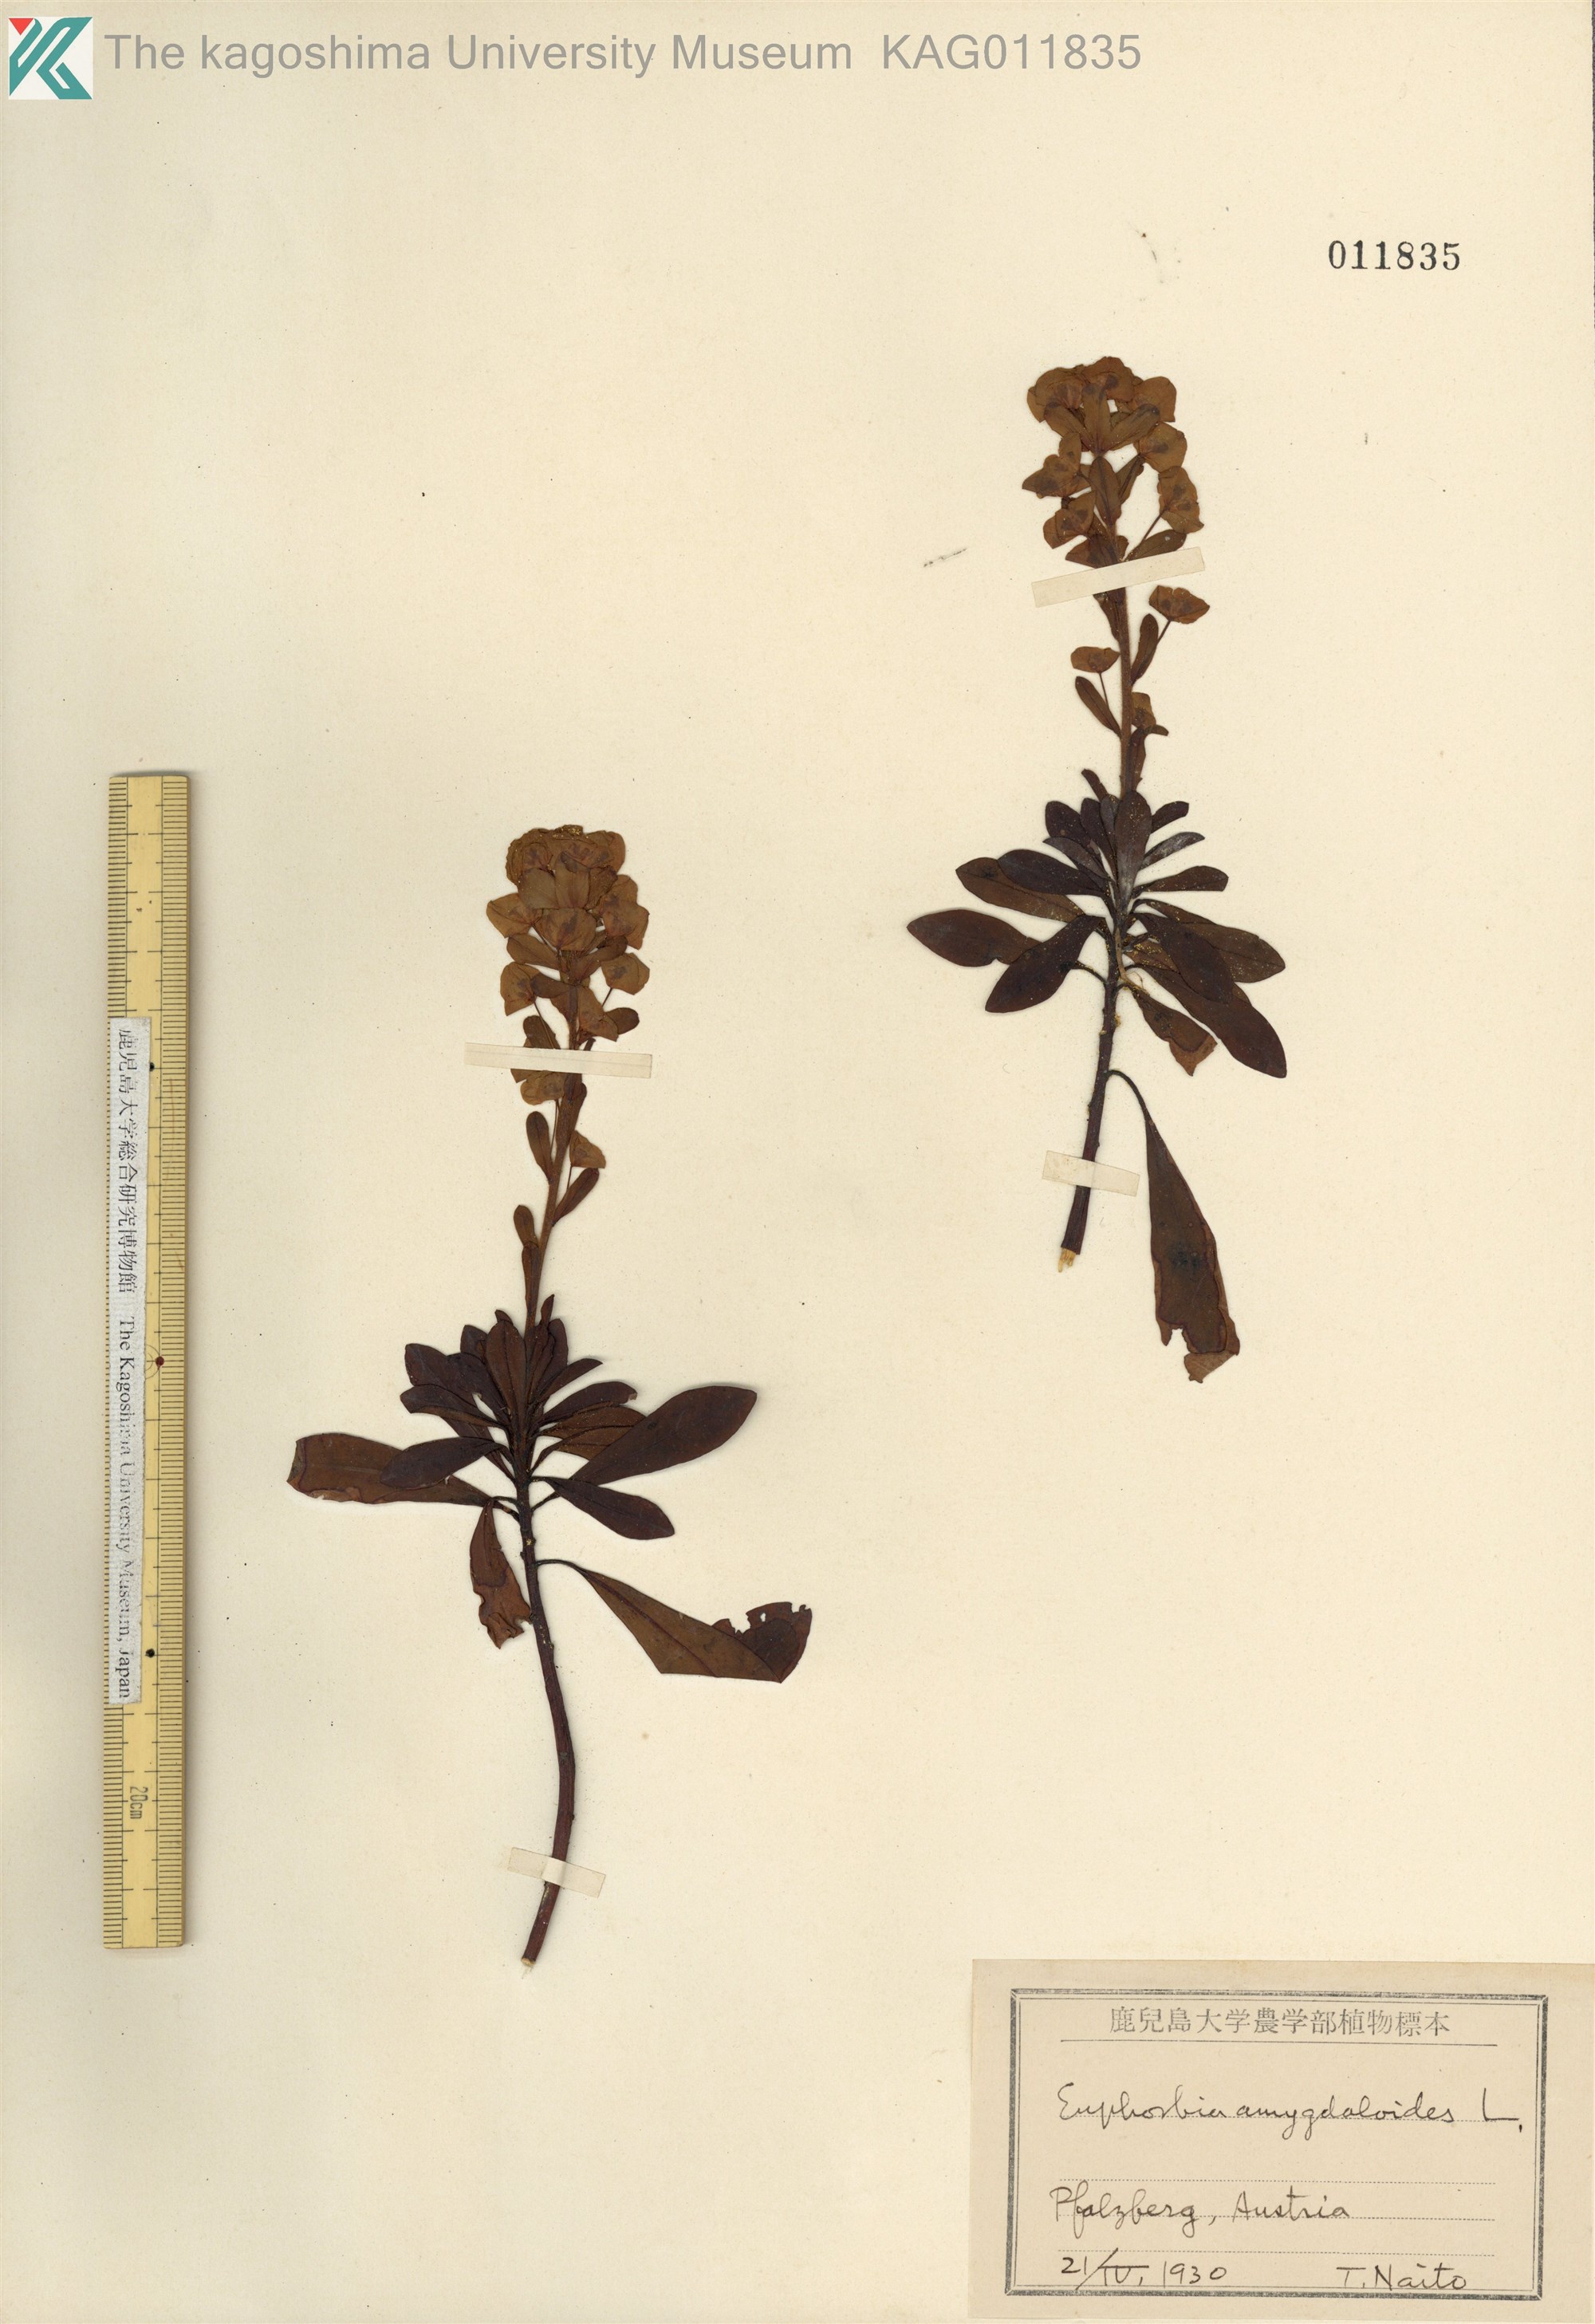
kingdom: Plantae
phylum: Tracheophyta
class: Magnoliopsida
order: Malpighiales
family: Euphorbiaceae
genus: Euphorbia
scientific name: Euphorbia amygdaloides
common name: Wood spurge
